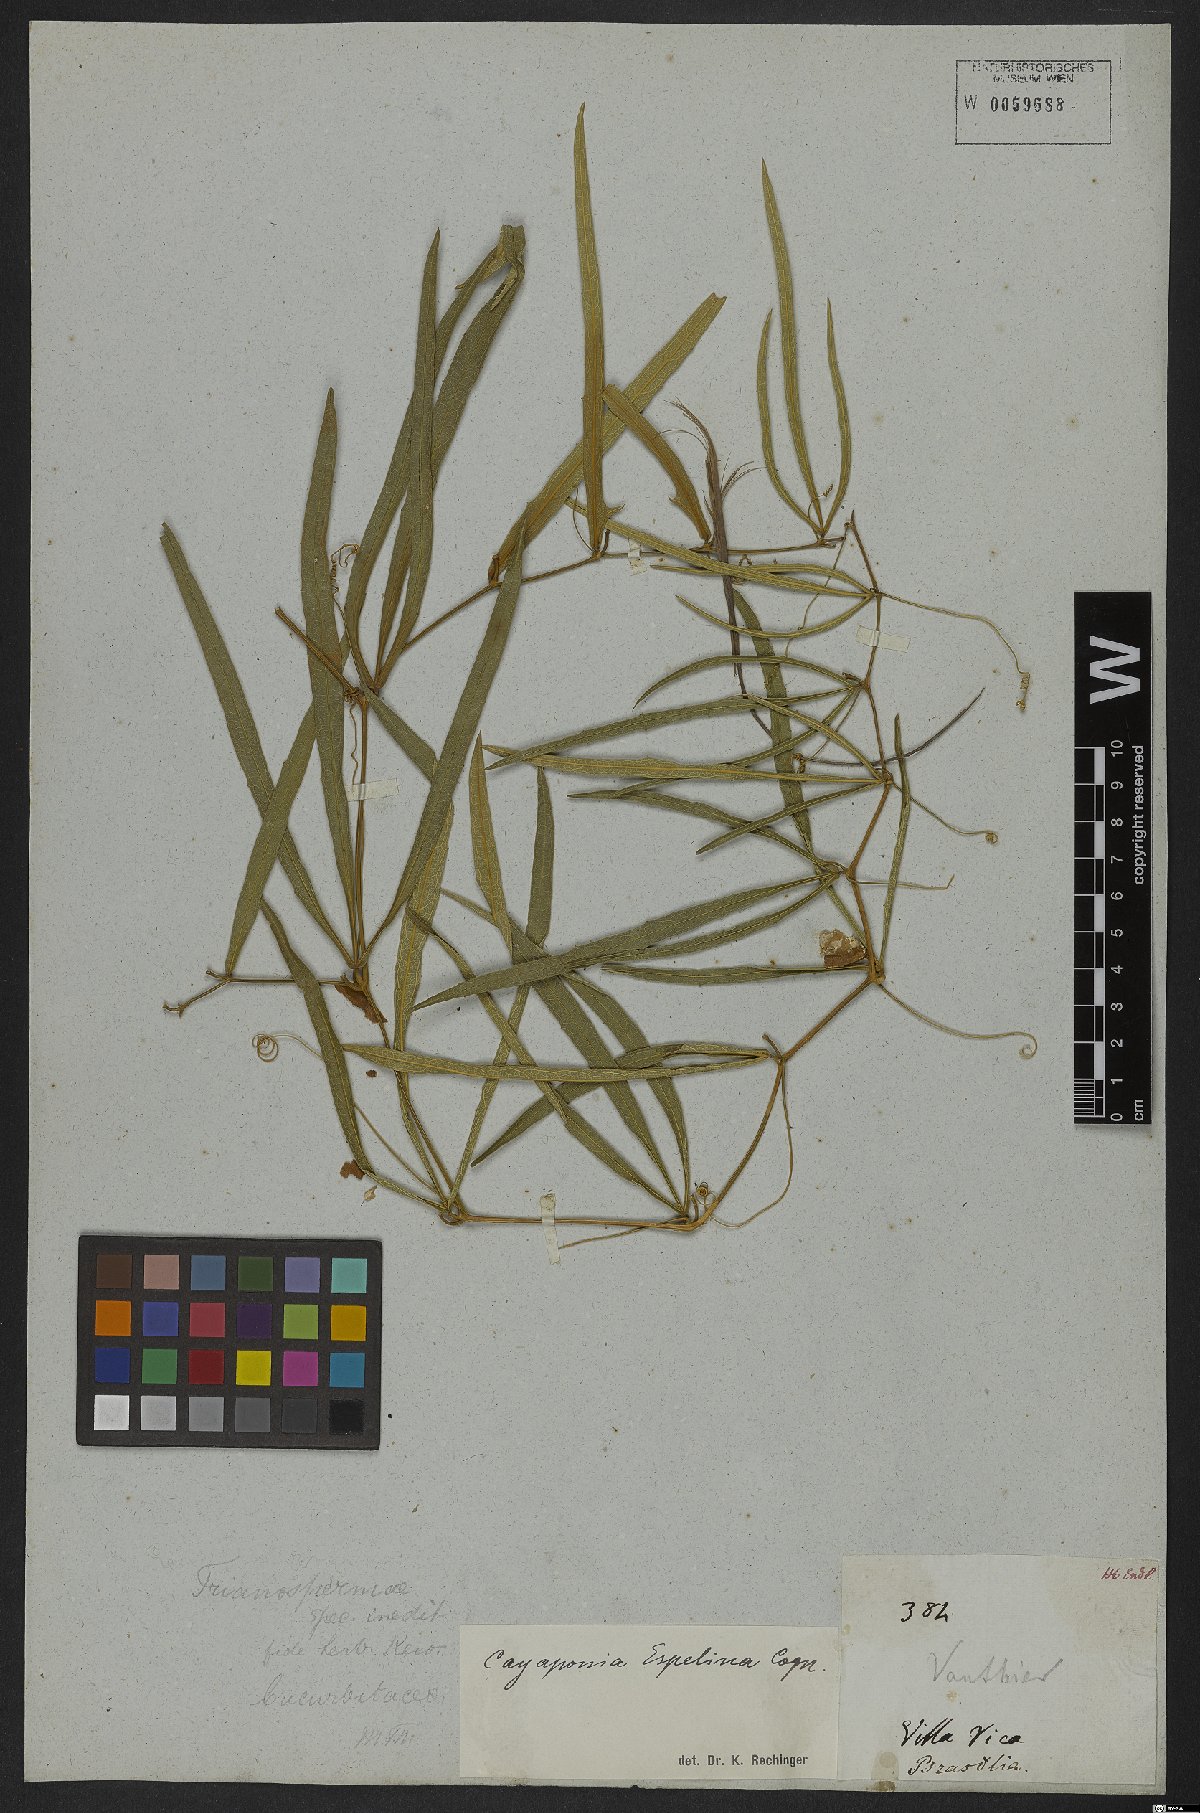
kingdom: Plantae
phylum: Tracheophyta
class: Magnoliopsida
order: Cucurbitales
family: Cucurbitaceae
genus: Cayaponia
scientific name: Cayaponia espelina
